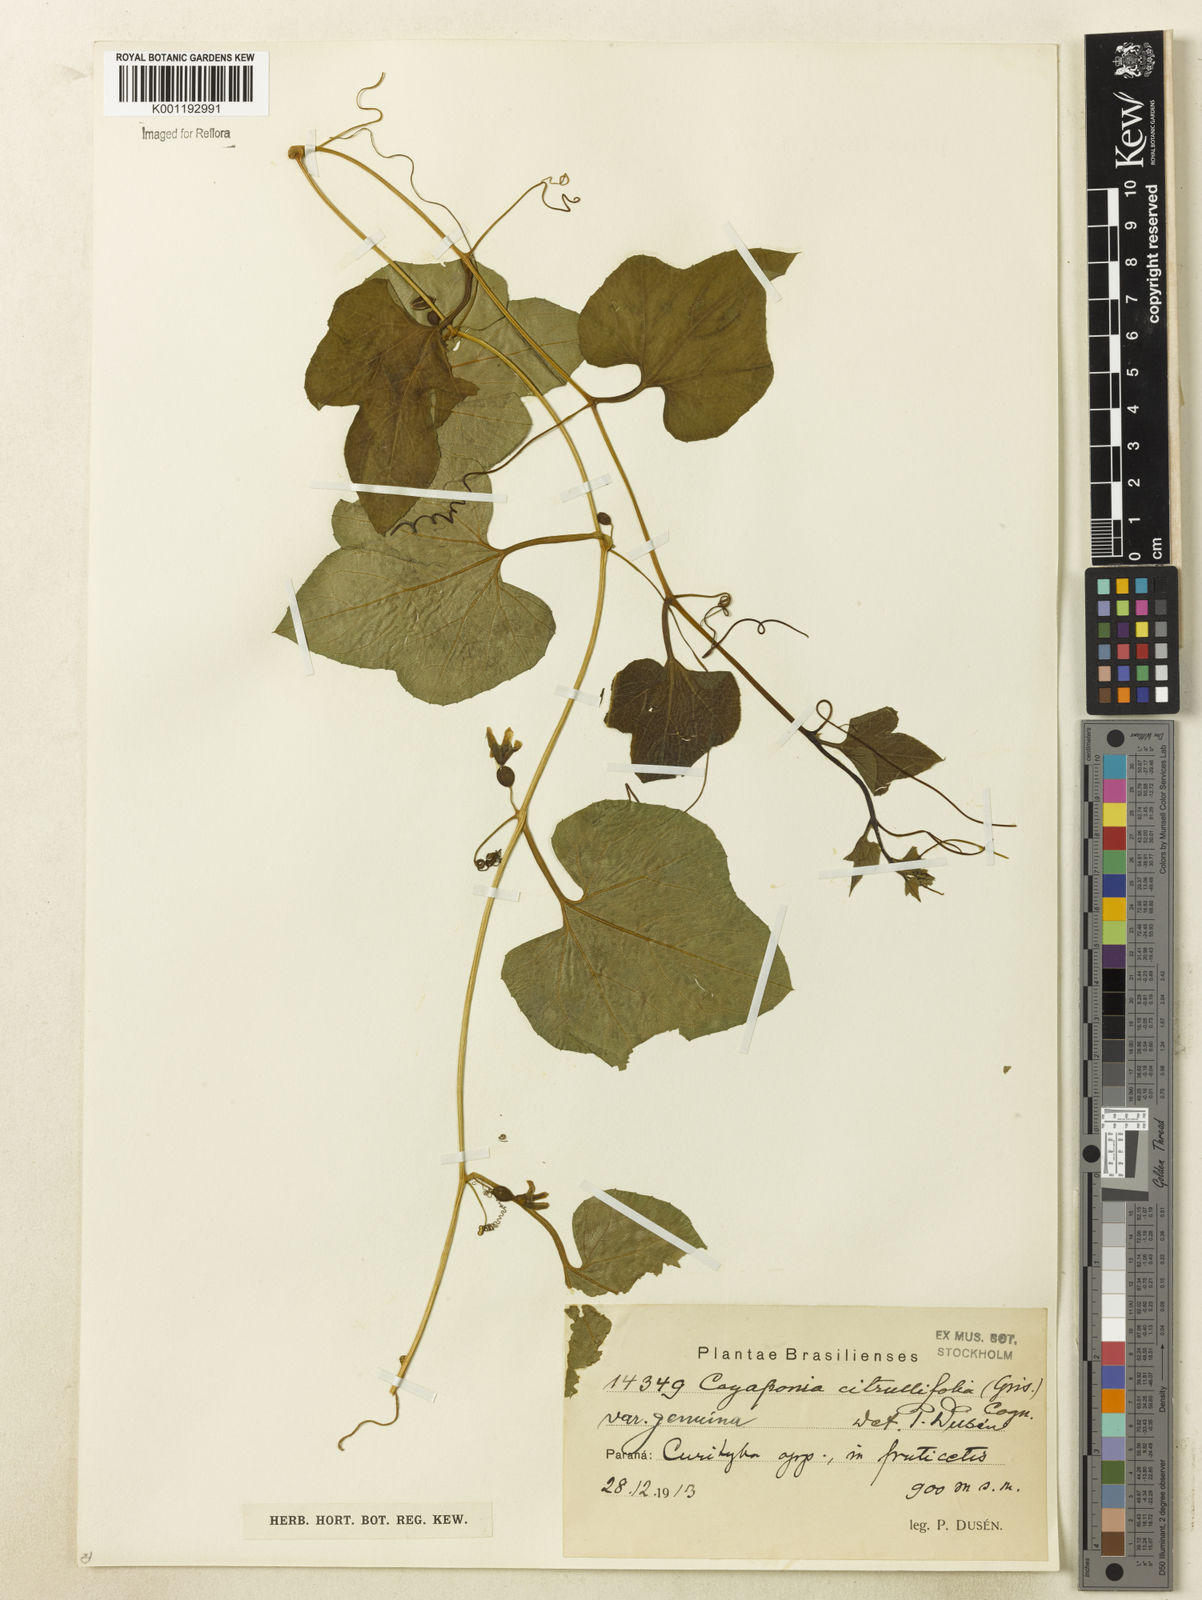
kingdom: Plantae
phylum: Tracheophyta
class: Magnoliopsida
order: Cucurbitales
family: Cucurbitaceae
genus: Cayaponia
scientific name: Cayaponia bonariensis
